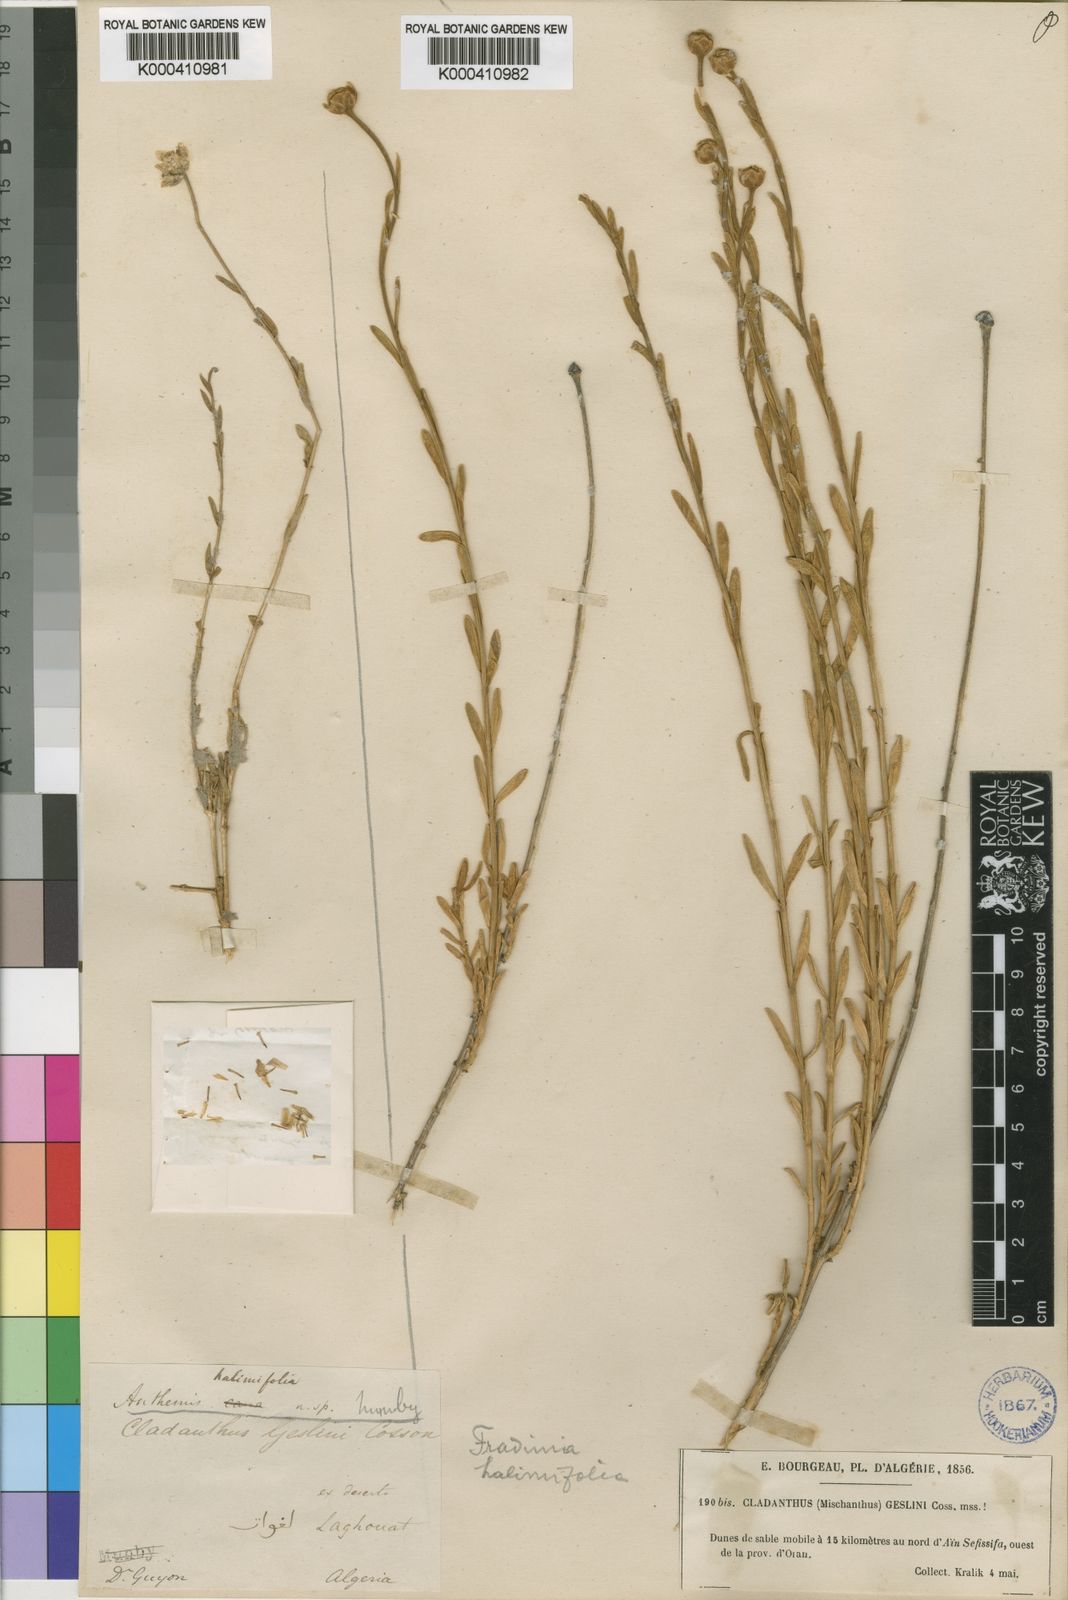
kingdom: Plantae
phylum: Tracheophyta
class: Magnoliopsida
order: Asterales
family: Asteraceae
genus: Mecomischus
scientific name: Mecomischus halimifolius
